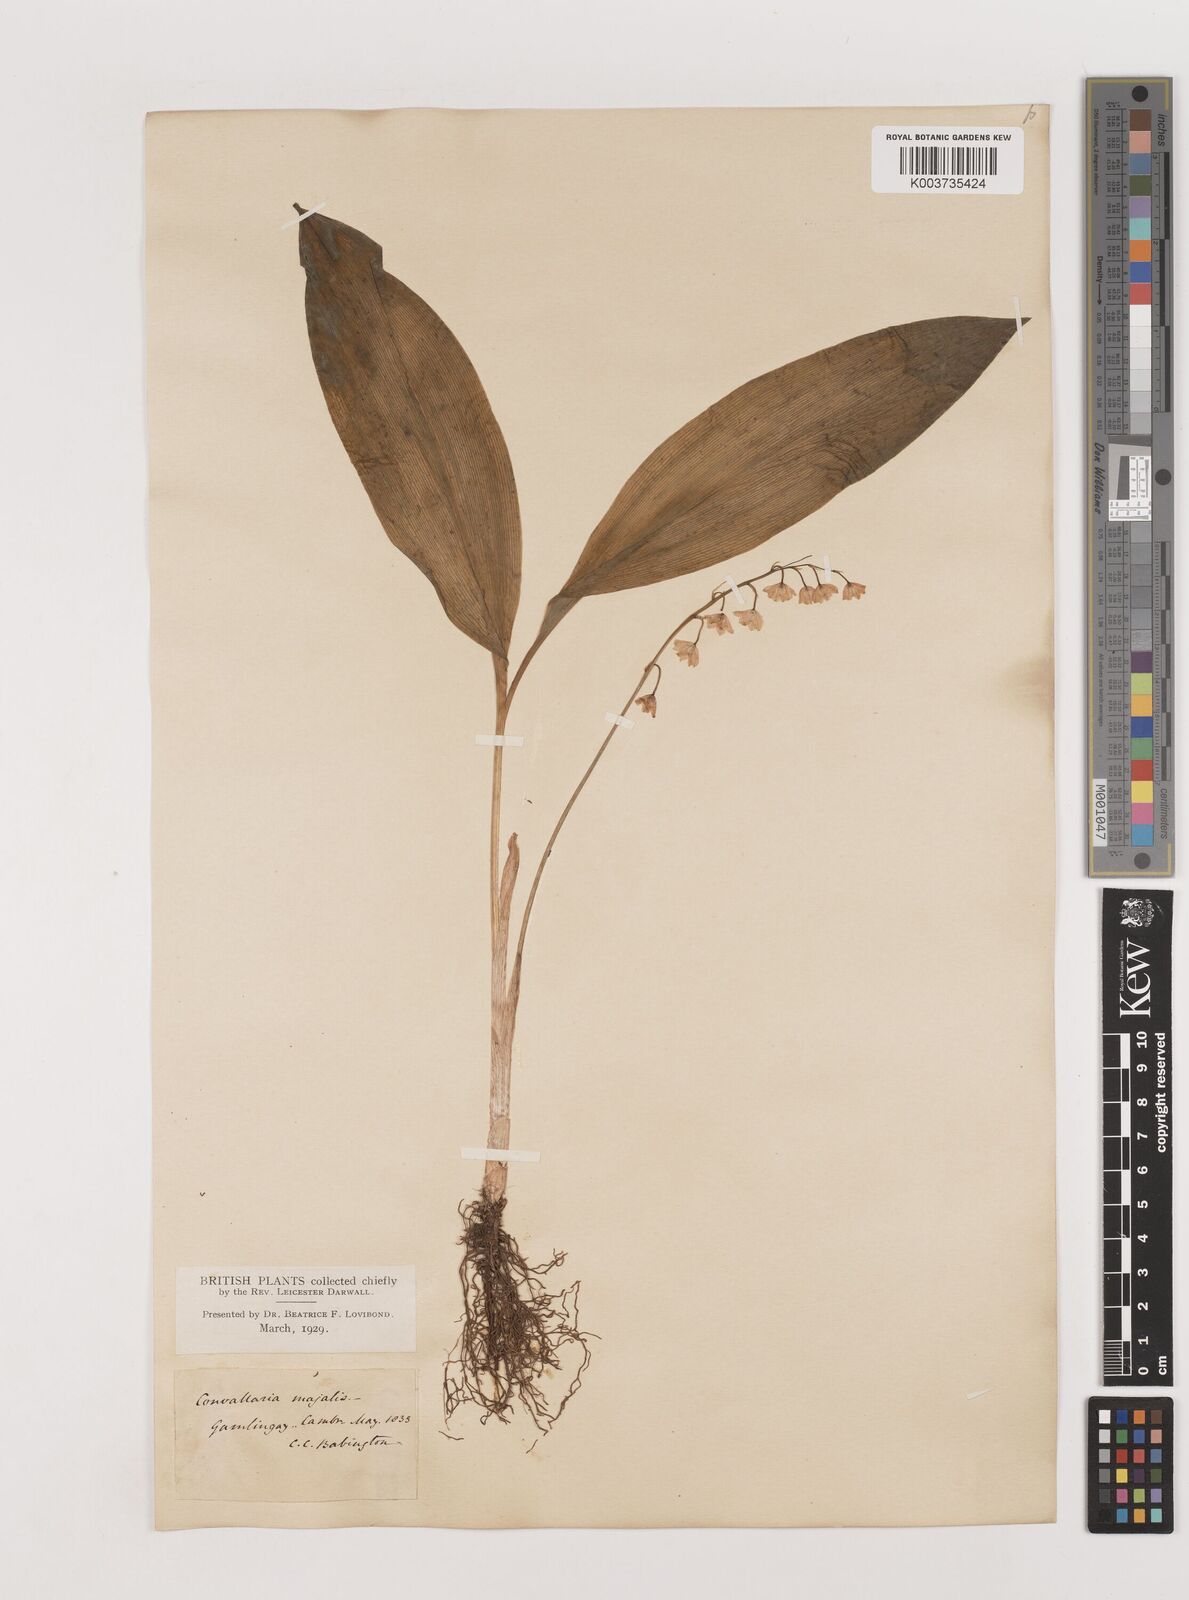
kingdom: Plantae
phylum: Tracheophyta
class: Liliopsida
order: Asparagales
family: Asparagaceae
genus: Convallaria
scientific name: Convallaria majalis
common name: Lily-of-the-valley
